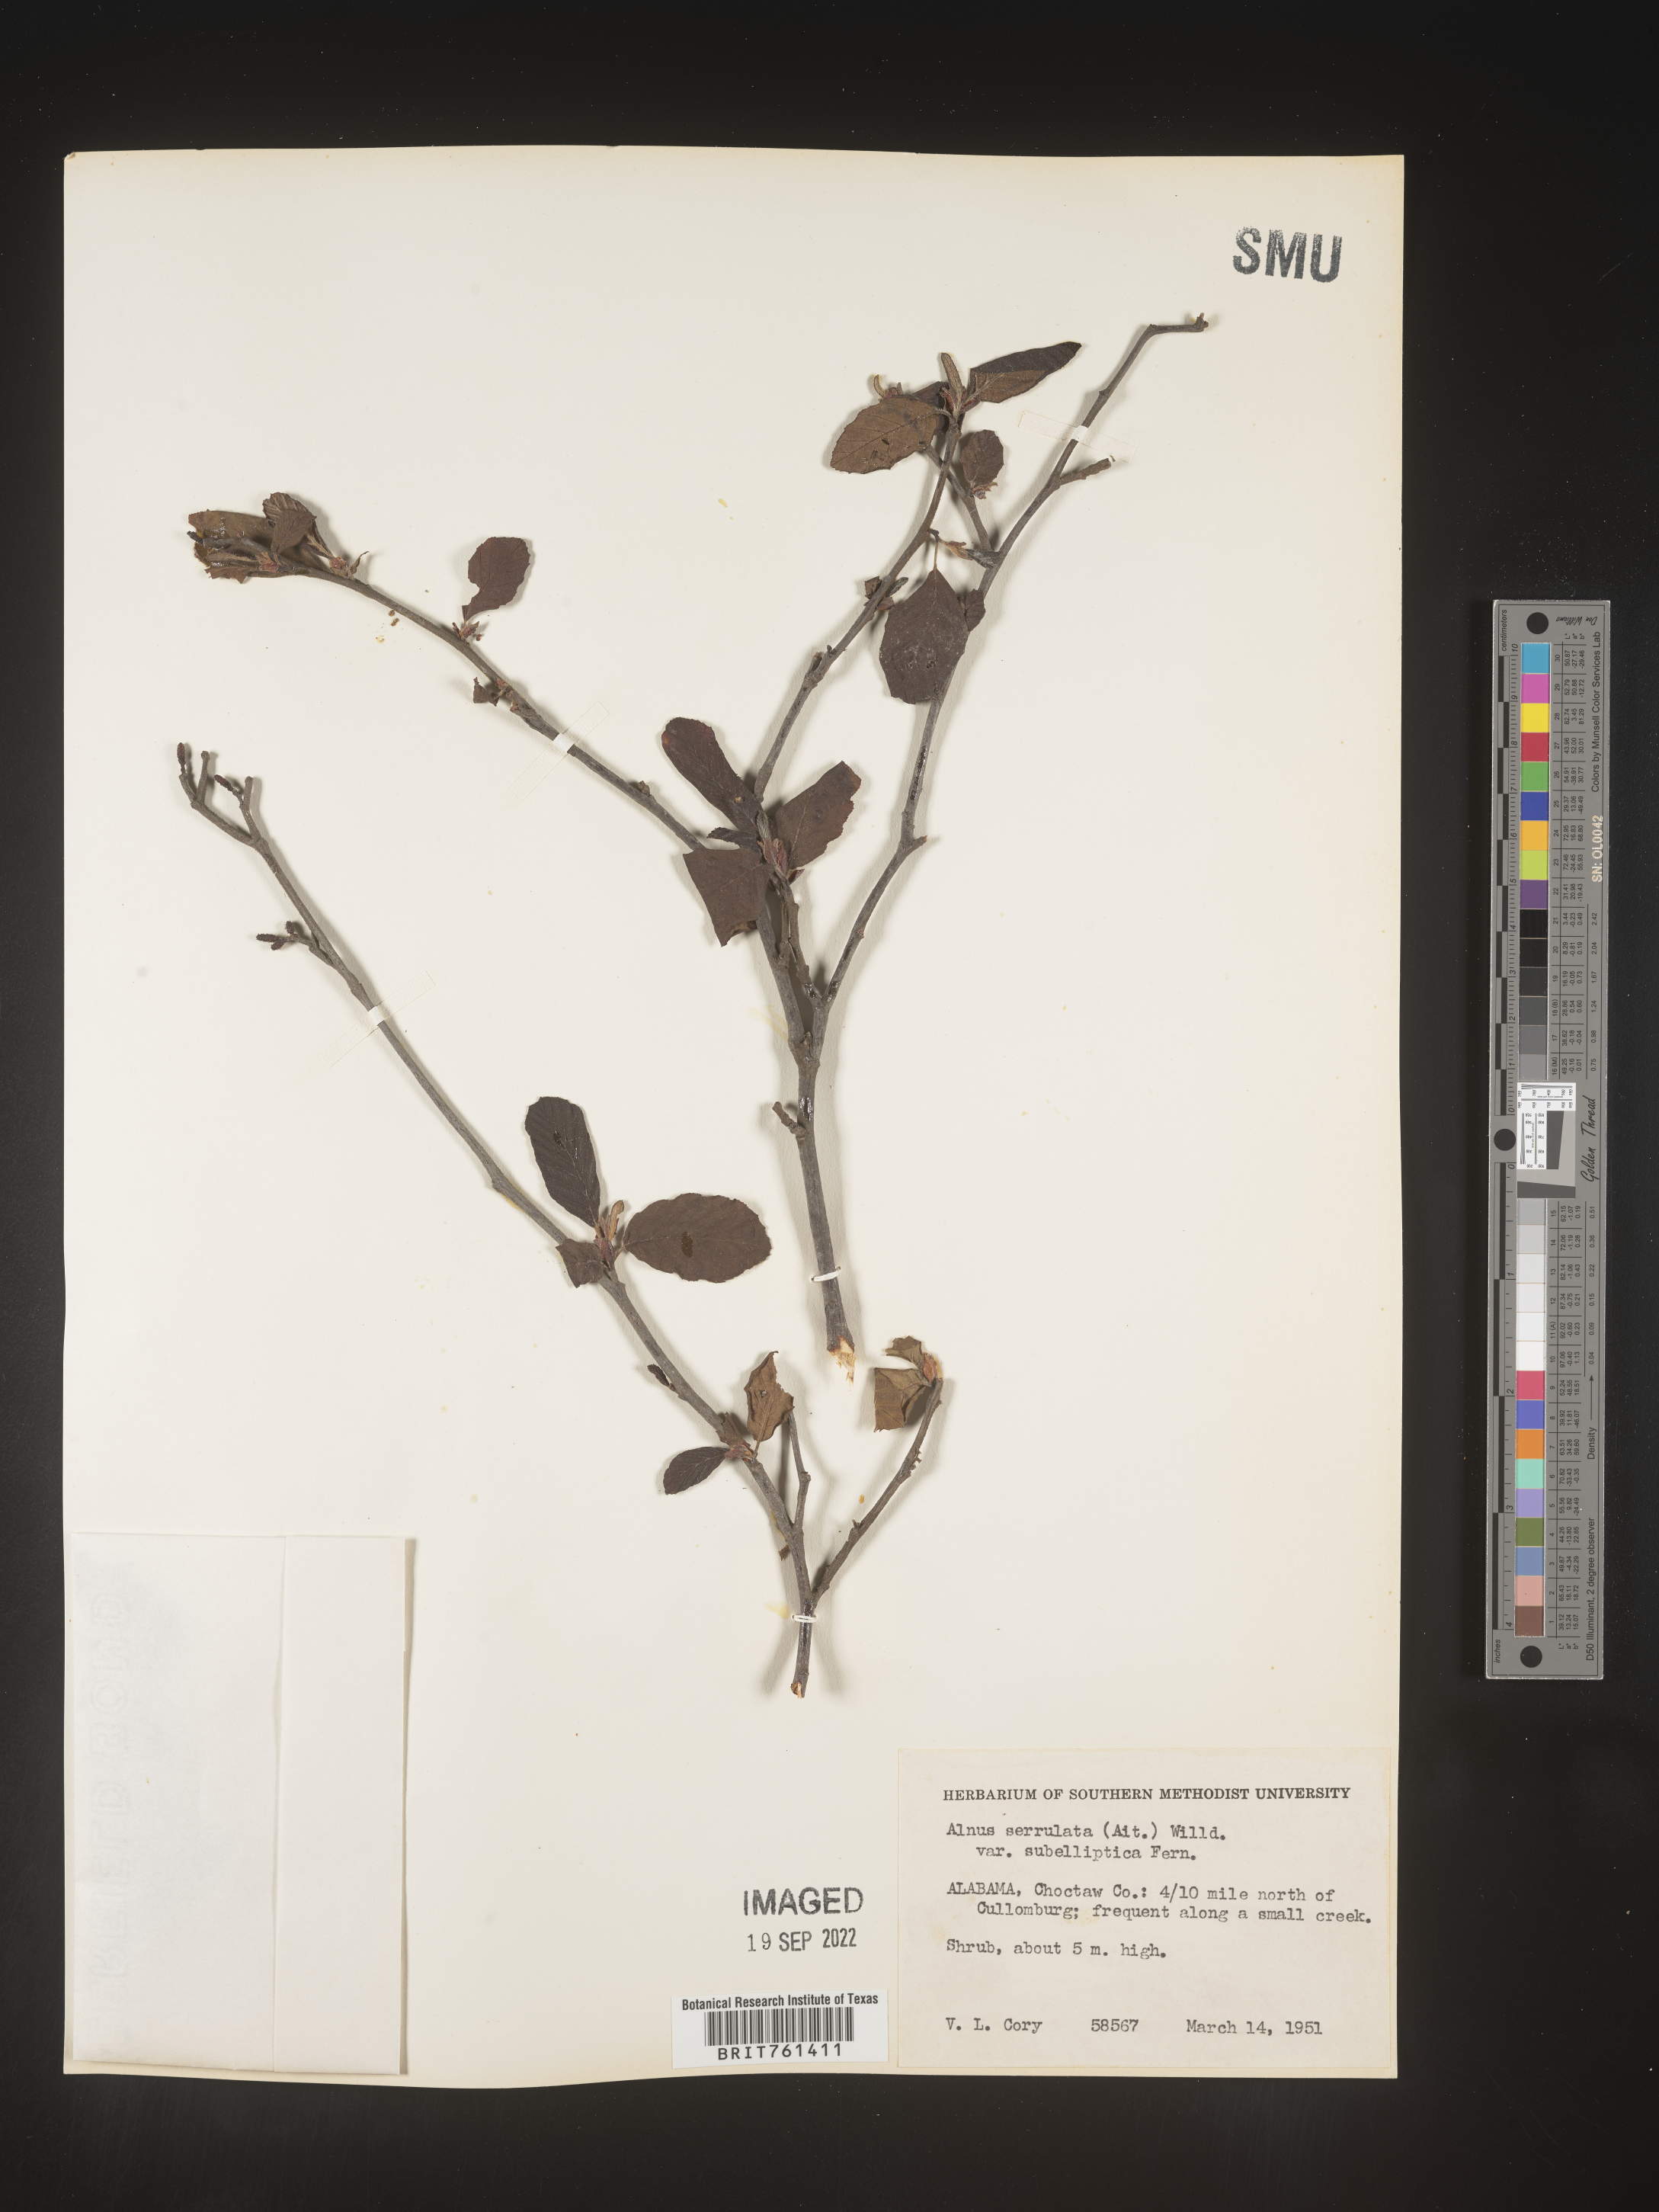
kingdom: Plantae
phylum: Tracheophyta
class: Magnoliopsida
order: Fagales
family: Betulaceae
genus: Alnus
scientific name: Alnus serrulata
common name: Hazel alder
